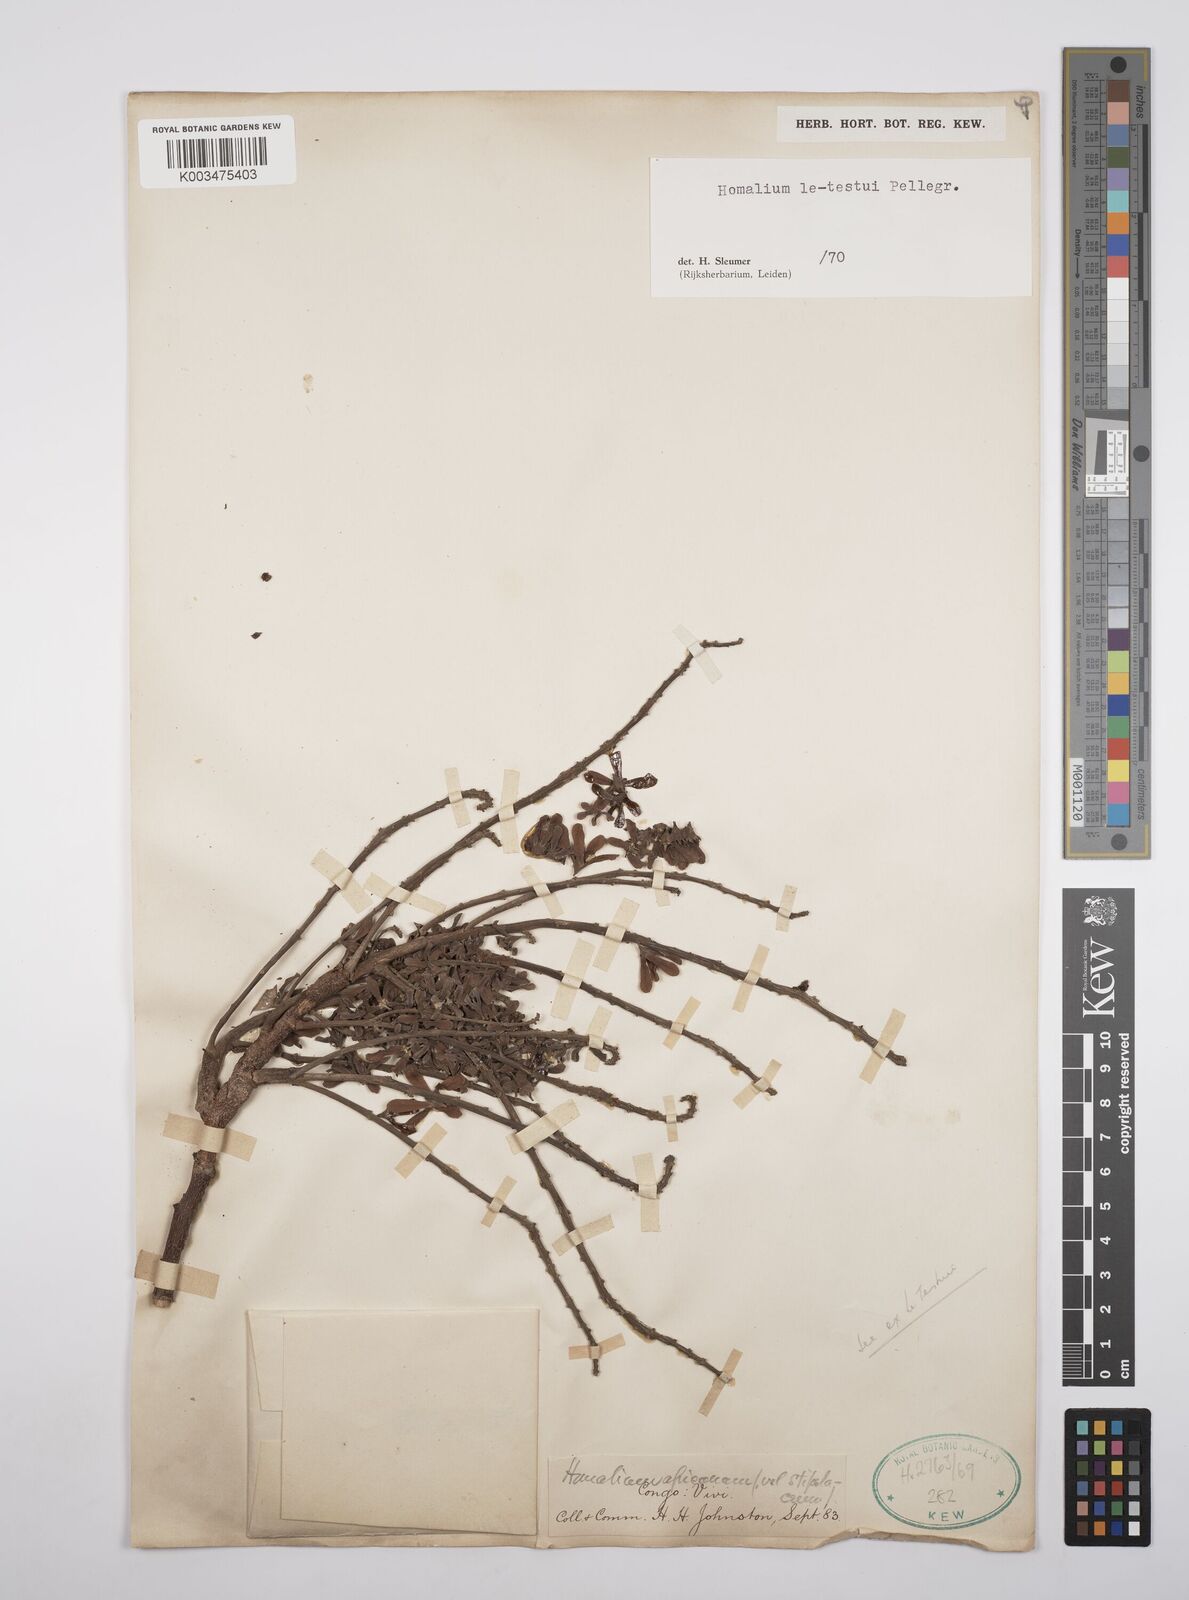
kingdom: Plantae
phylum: Tracheophyta
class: Magnoliopsida
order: Malpighiales
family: Salicaceae
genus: Homalium
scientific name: Homalium letestui
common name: African homalium
